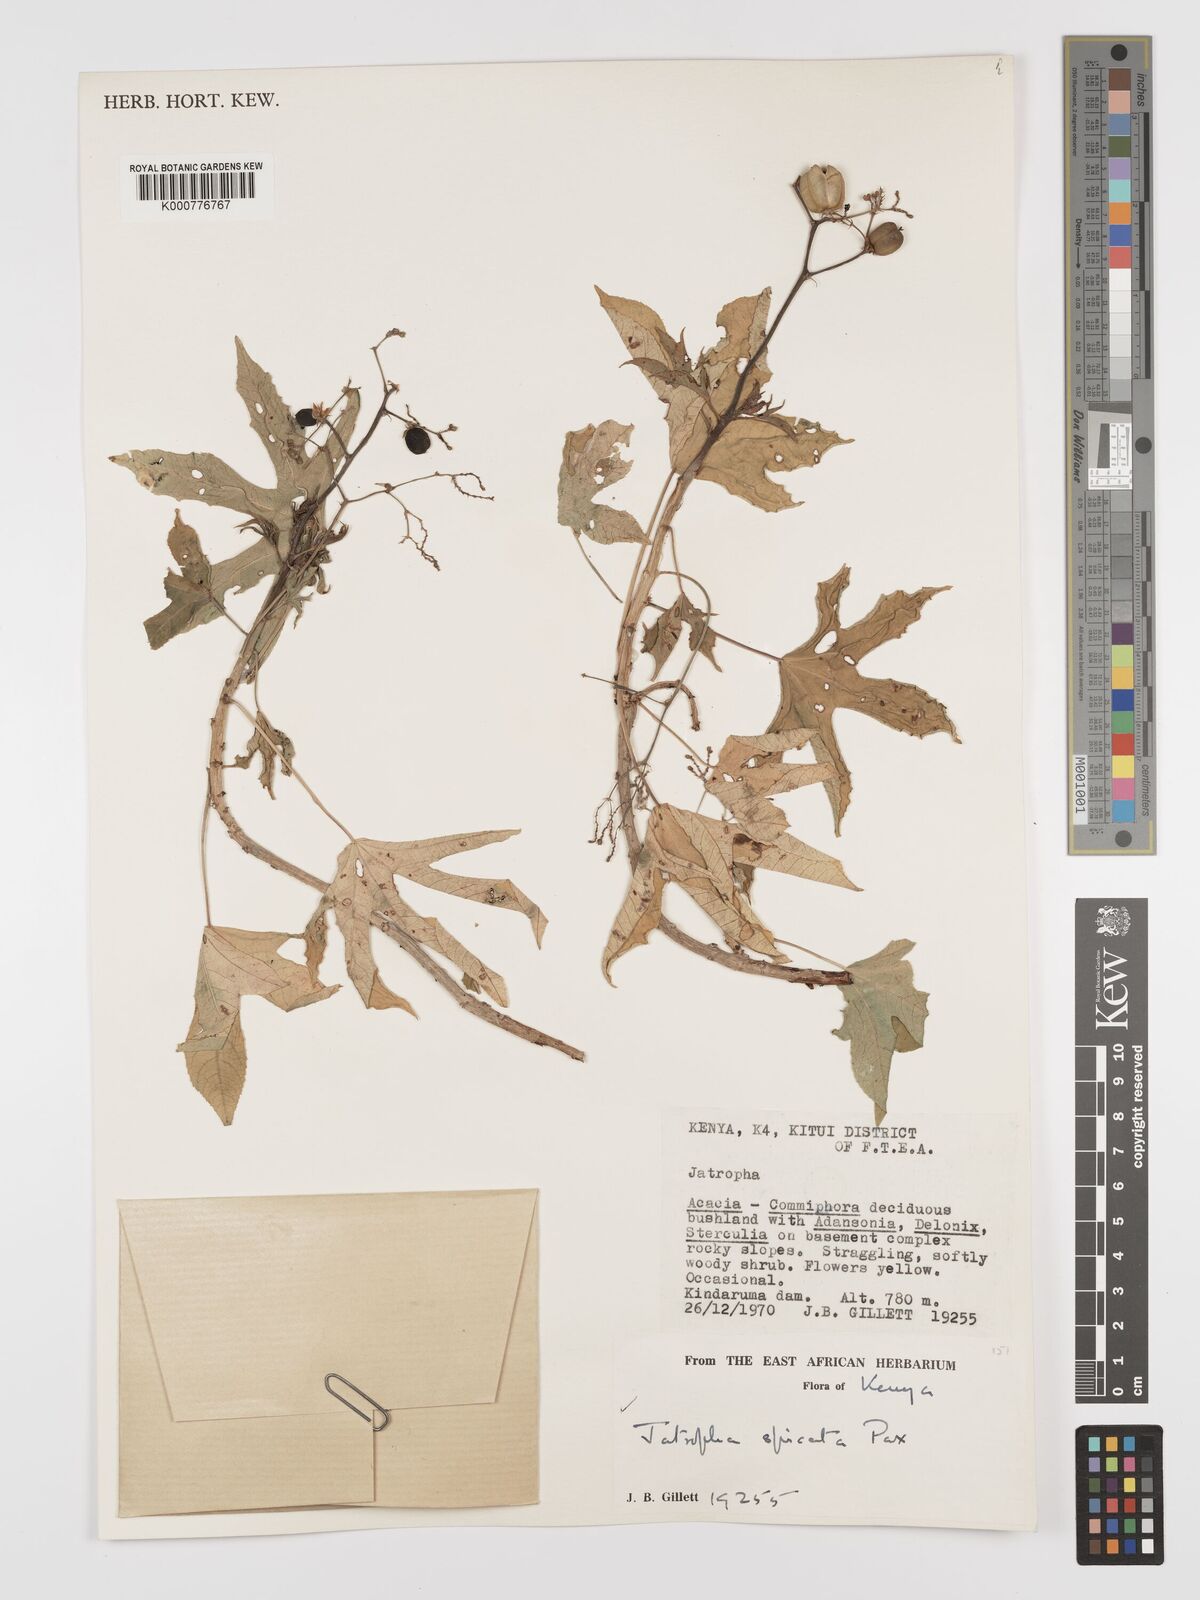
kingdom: Plantae
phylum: Tracheophyta
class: Magnoliopsida
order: Malpighiales
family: Euphorbiaceae
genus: Jatropha
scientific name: Jatropha spicata
